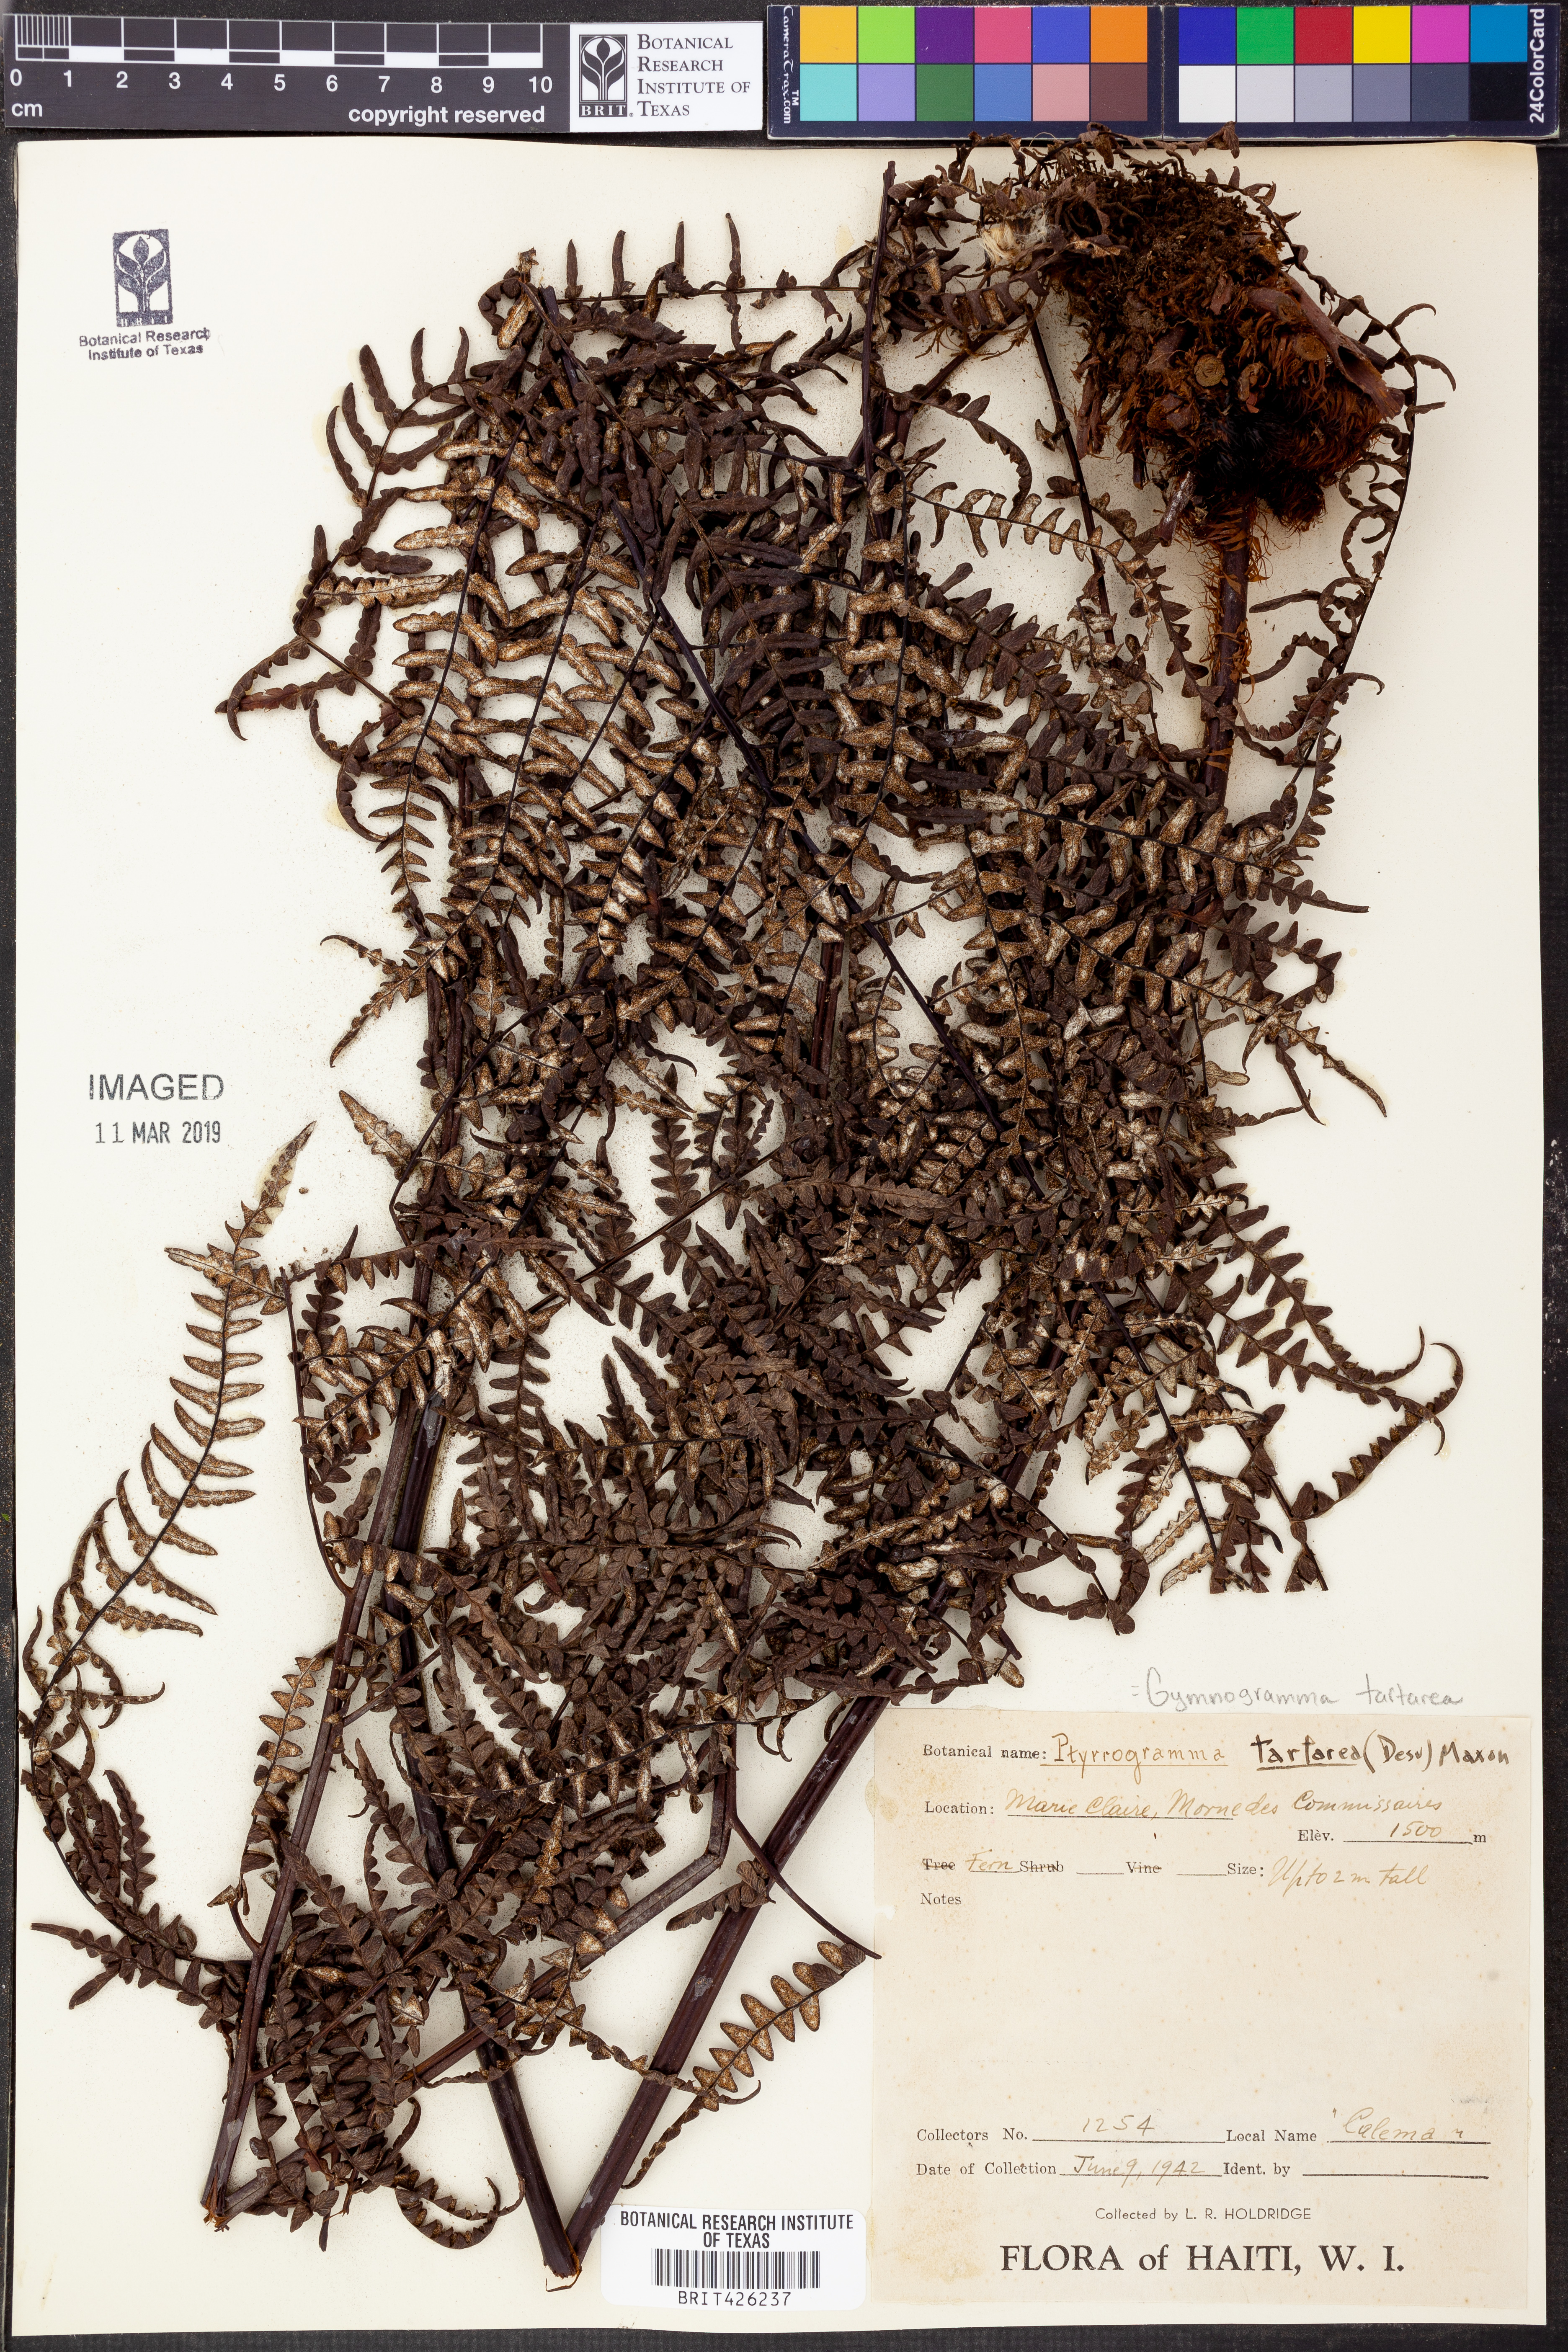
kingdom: Plantae
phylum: Tracheophyta
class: Polypodiopsida
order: Polypodiales
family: Pteridaceae
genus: Pityrogramma
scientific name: Pityrogramma ebenea
